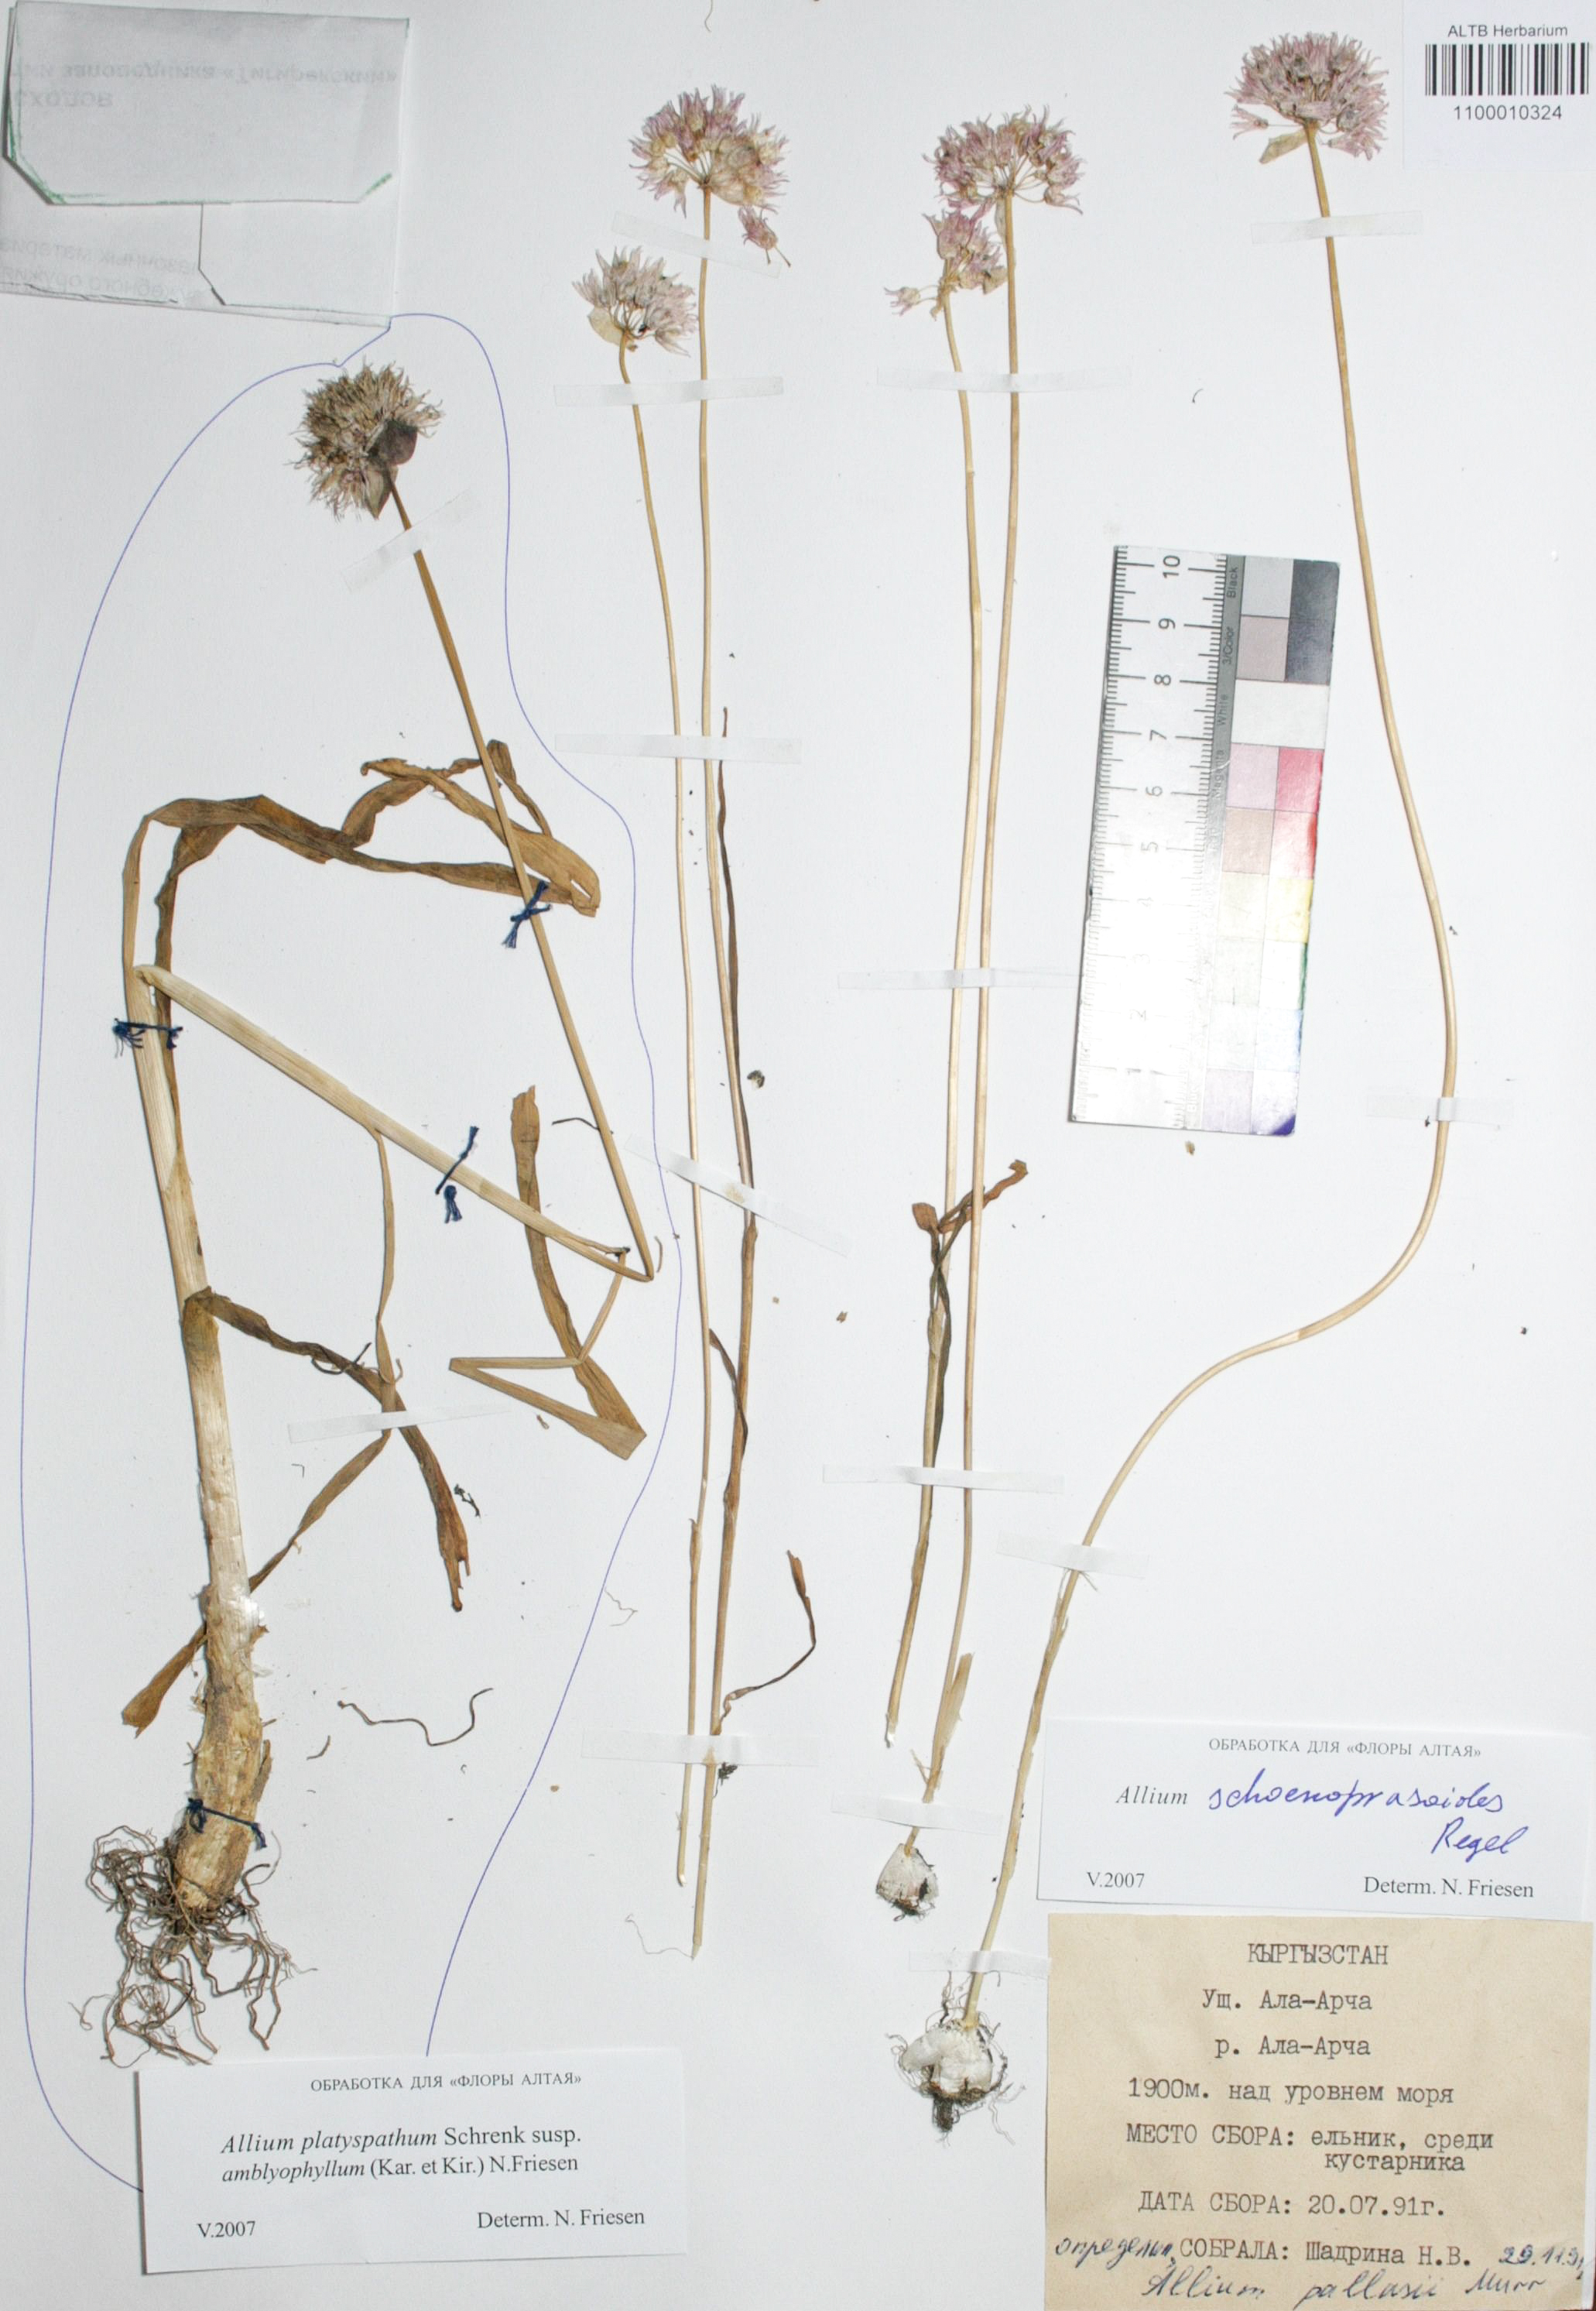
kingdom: Plantae
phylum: Tracheophyta
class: Liliopsida
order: Asparagales
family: Amaryllidaceae
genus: Allium
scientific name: Allium schoenoprasoides
